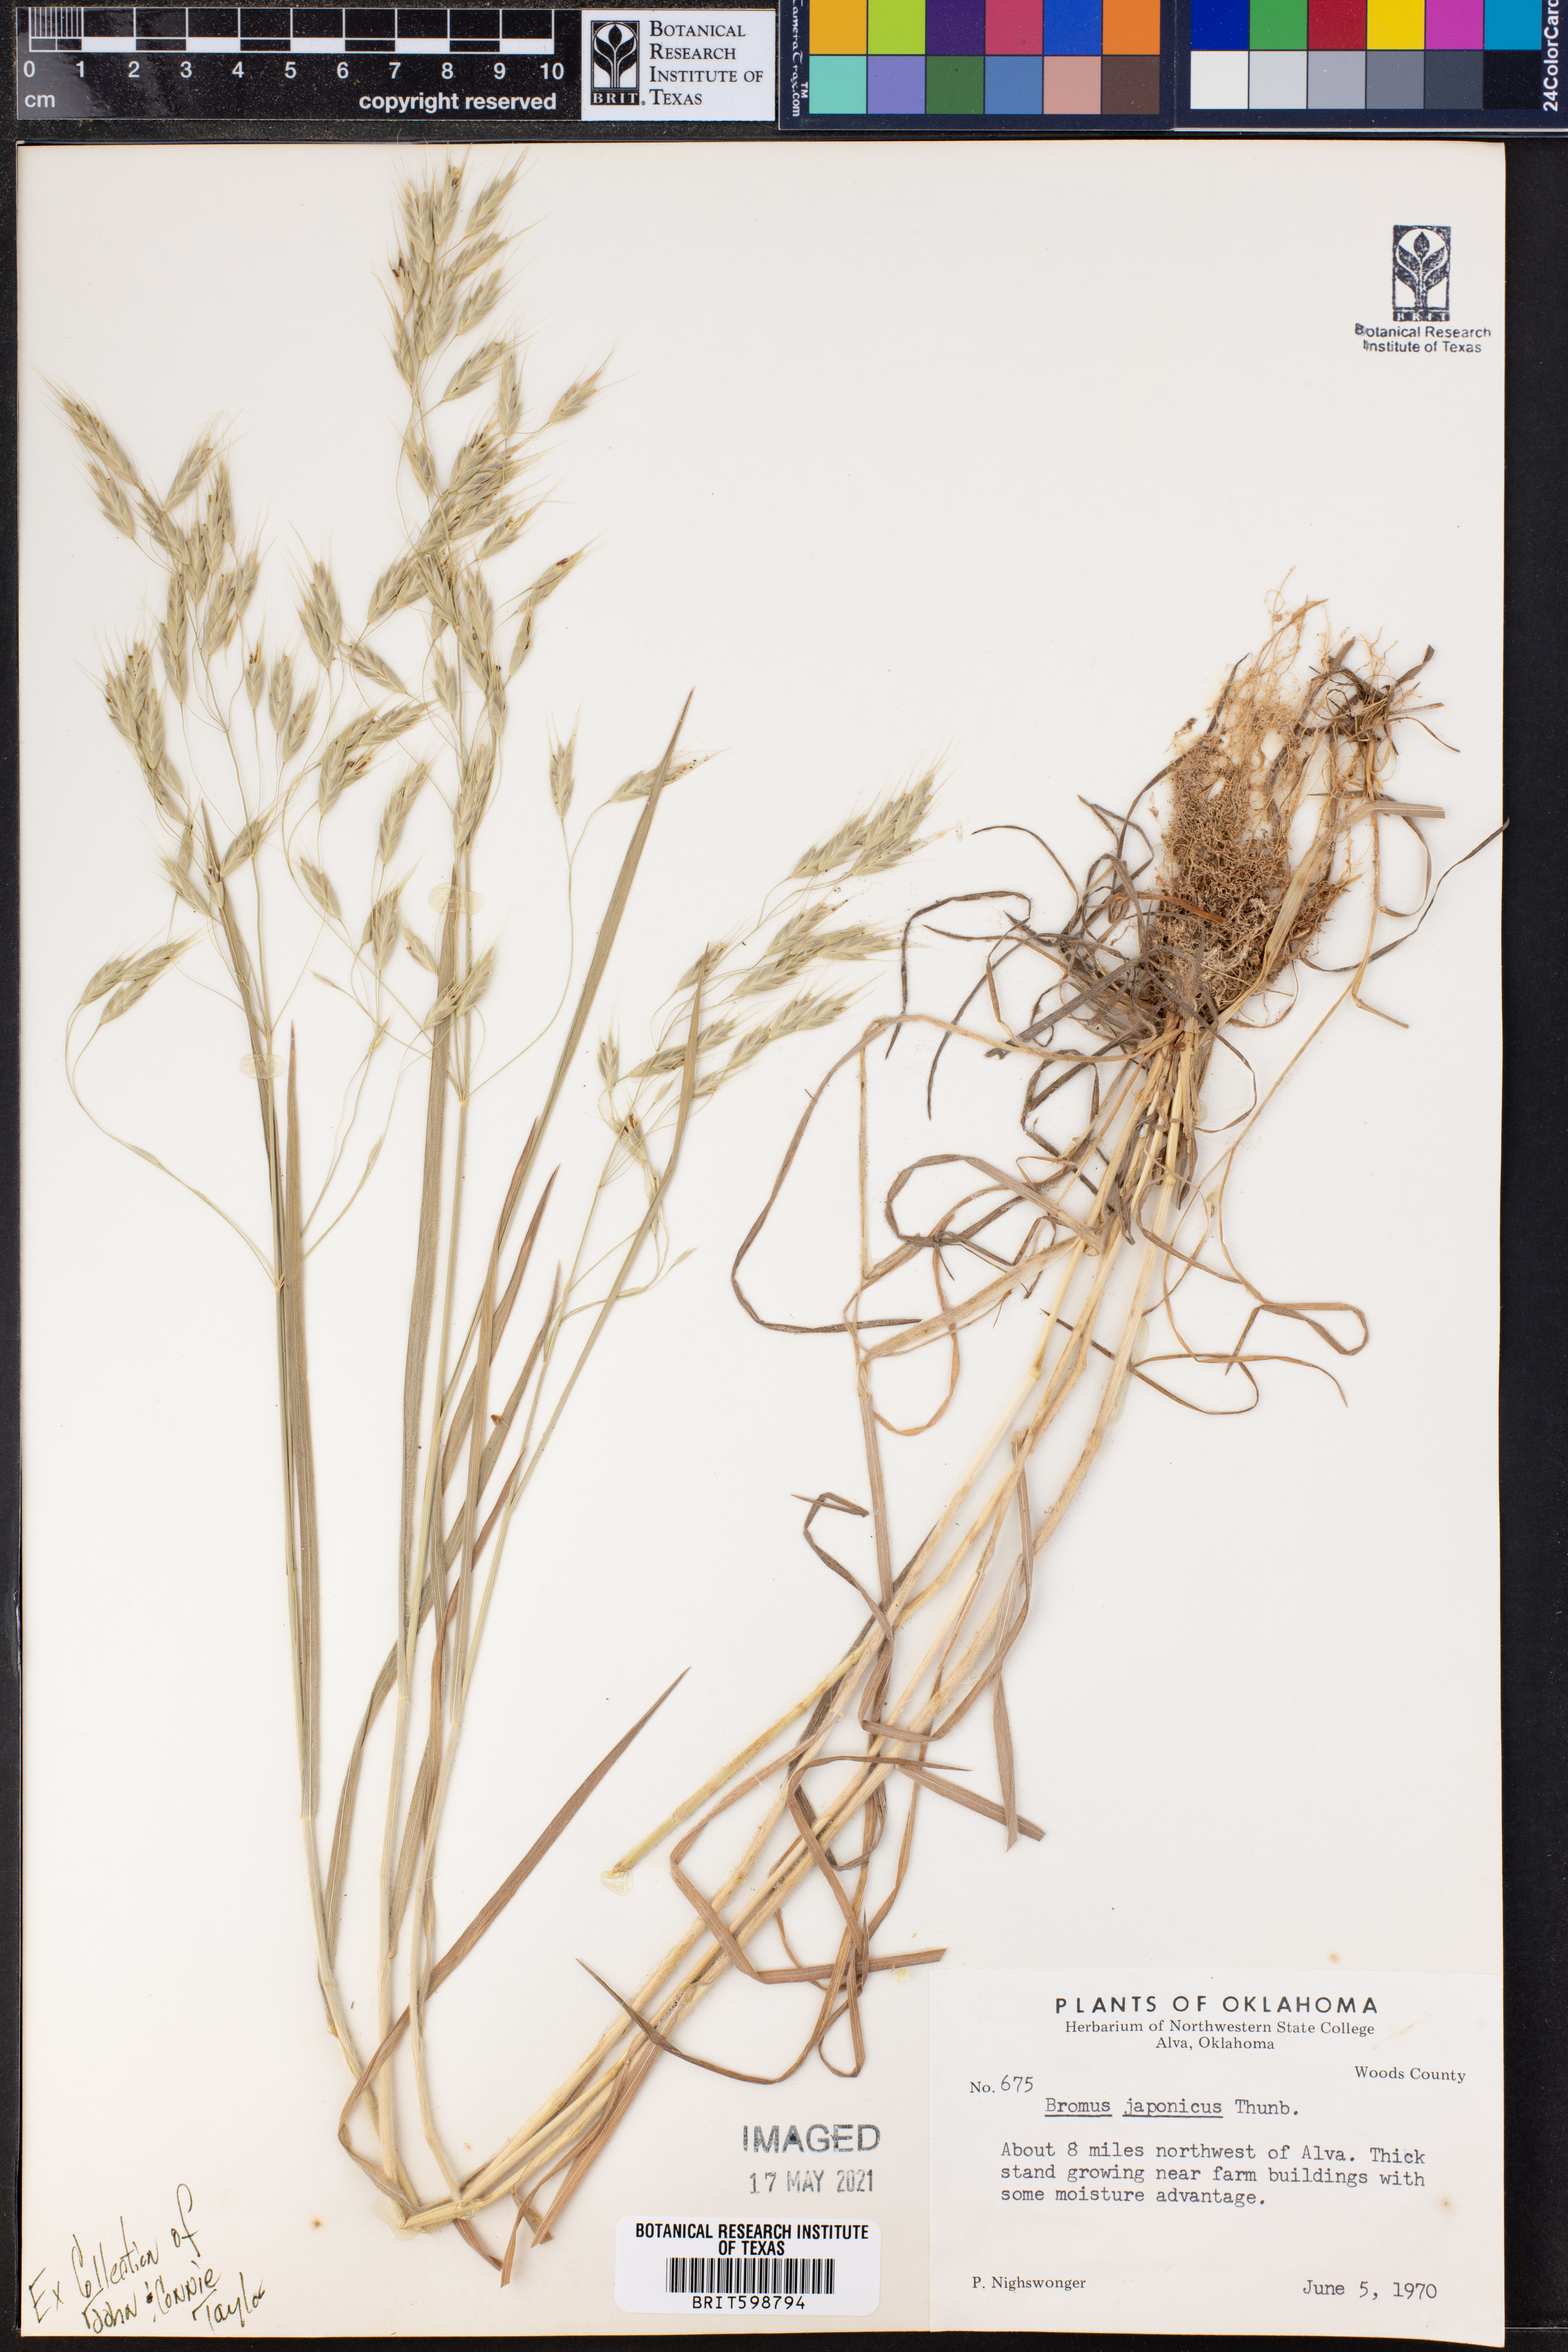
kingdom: Plantae
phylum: Tracheophyta
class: Liliopsida
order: Poales
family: Poaceae
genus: Bromus
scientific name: Bromus japonicus
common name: Japanese brome
